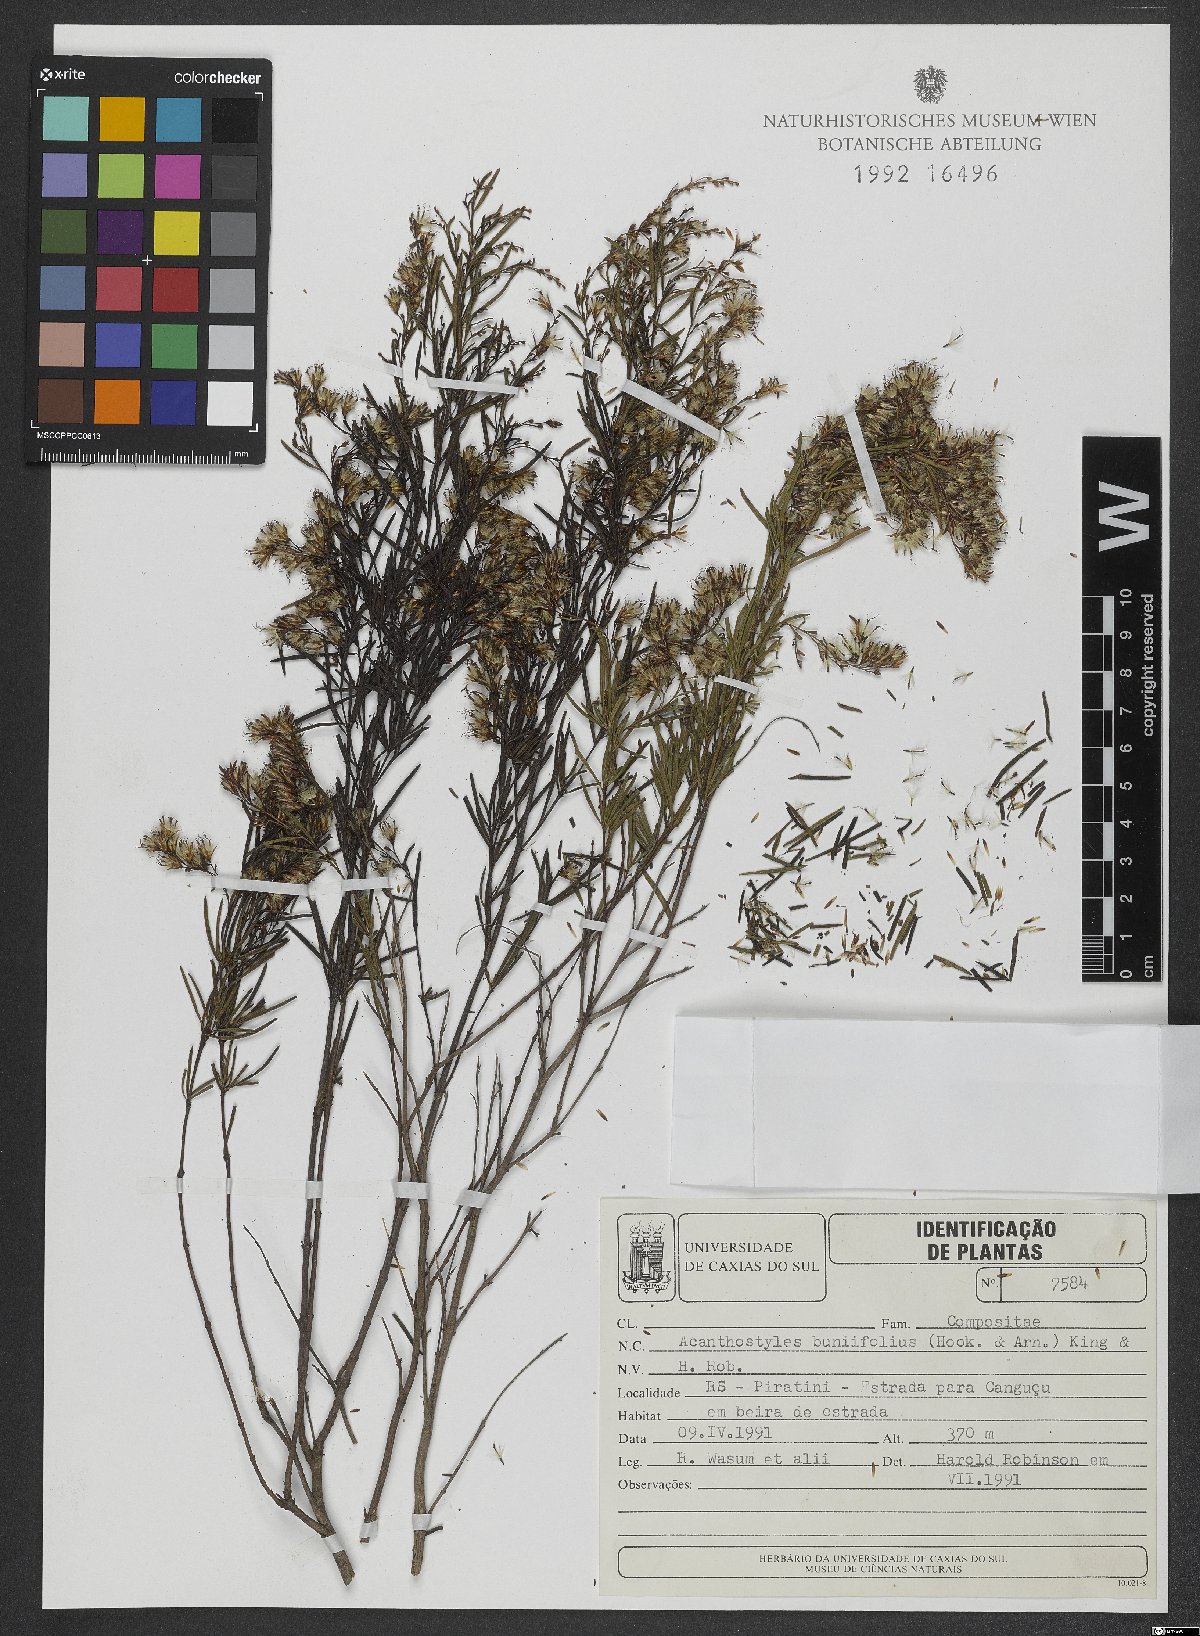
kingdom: Plantae
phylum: Tracheophyta
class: Magnoliopsida
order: Asterales
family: Asteraceae
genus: Acanthostyles
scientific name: Acanthostyles buniifolius
